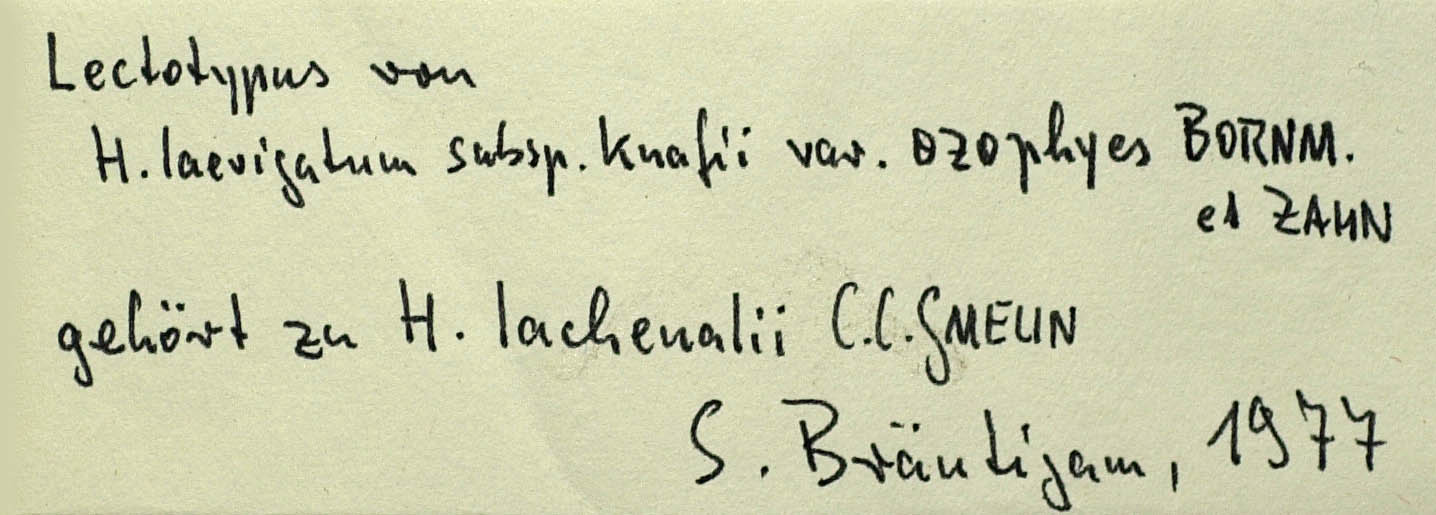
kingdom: Plantae
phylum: Tracheophyta
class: Magnoliopsida
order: Asterales
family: Asteraceae
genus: Hieracium
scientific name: Hieracium laevigatum
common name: Smooth hawkweed
